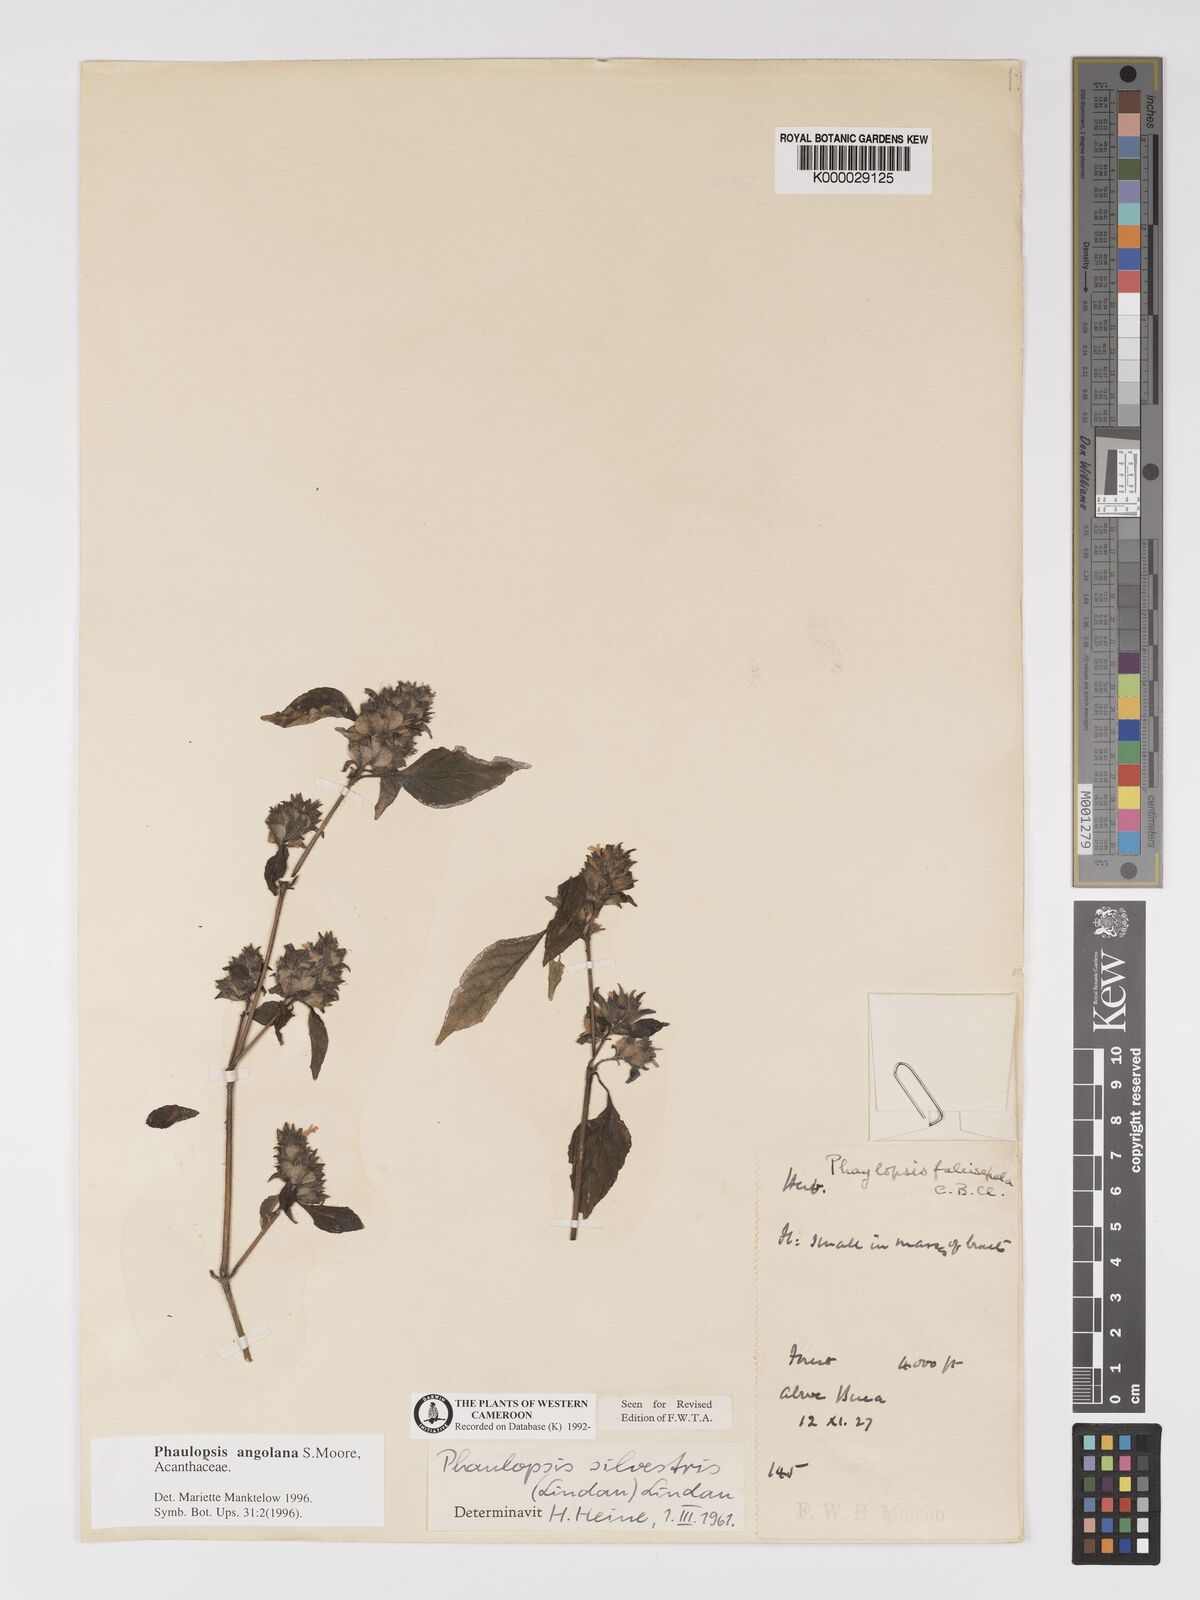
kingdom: Plantae
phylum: Tracheophyta
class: Magnoliopsida
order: Lamiales
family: Acanthaceae
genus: Phaulopsis
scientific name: Phaulopsis angolana
